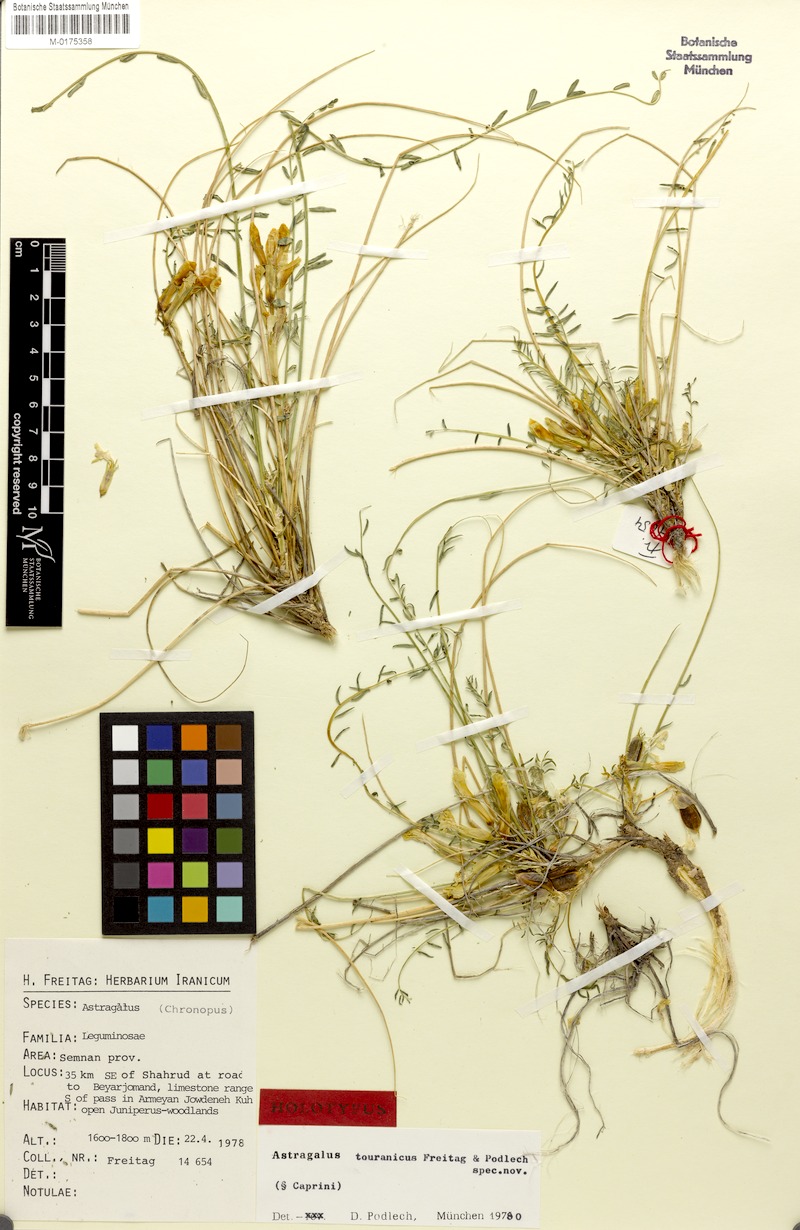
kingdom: Plantae
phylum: Tracheophyta
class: Magnoliopsida
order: Fabales
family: Fabaceae
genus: Astragalus
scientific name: Astragalus touranicus
